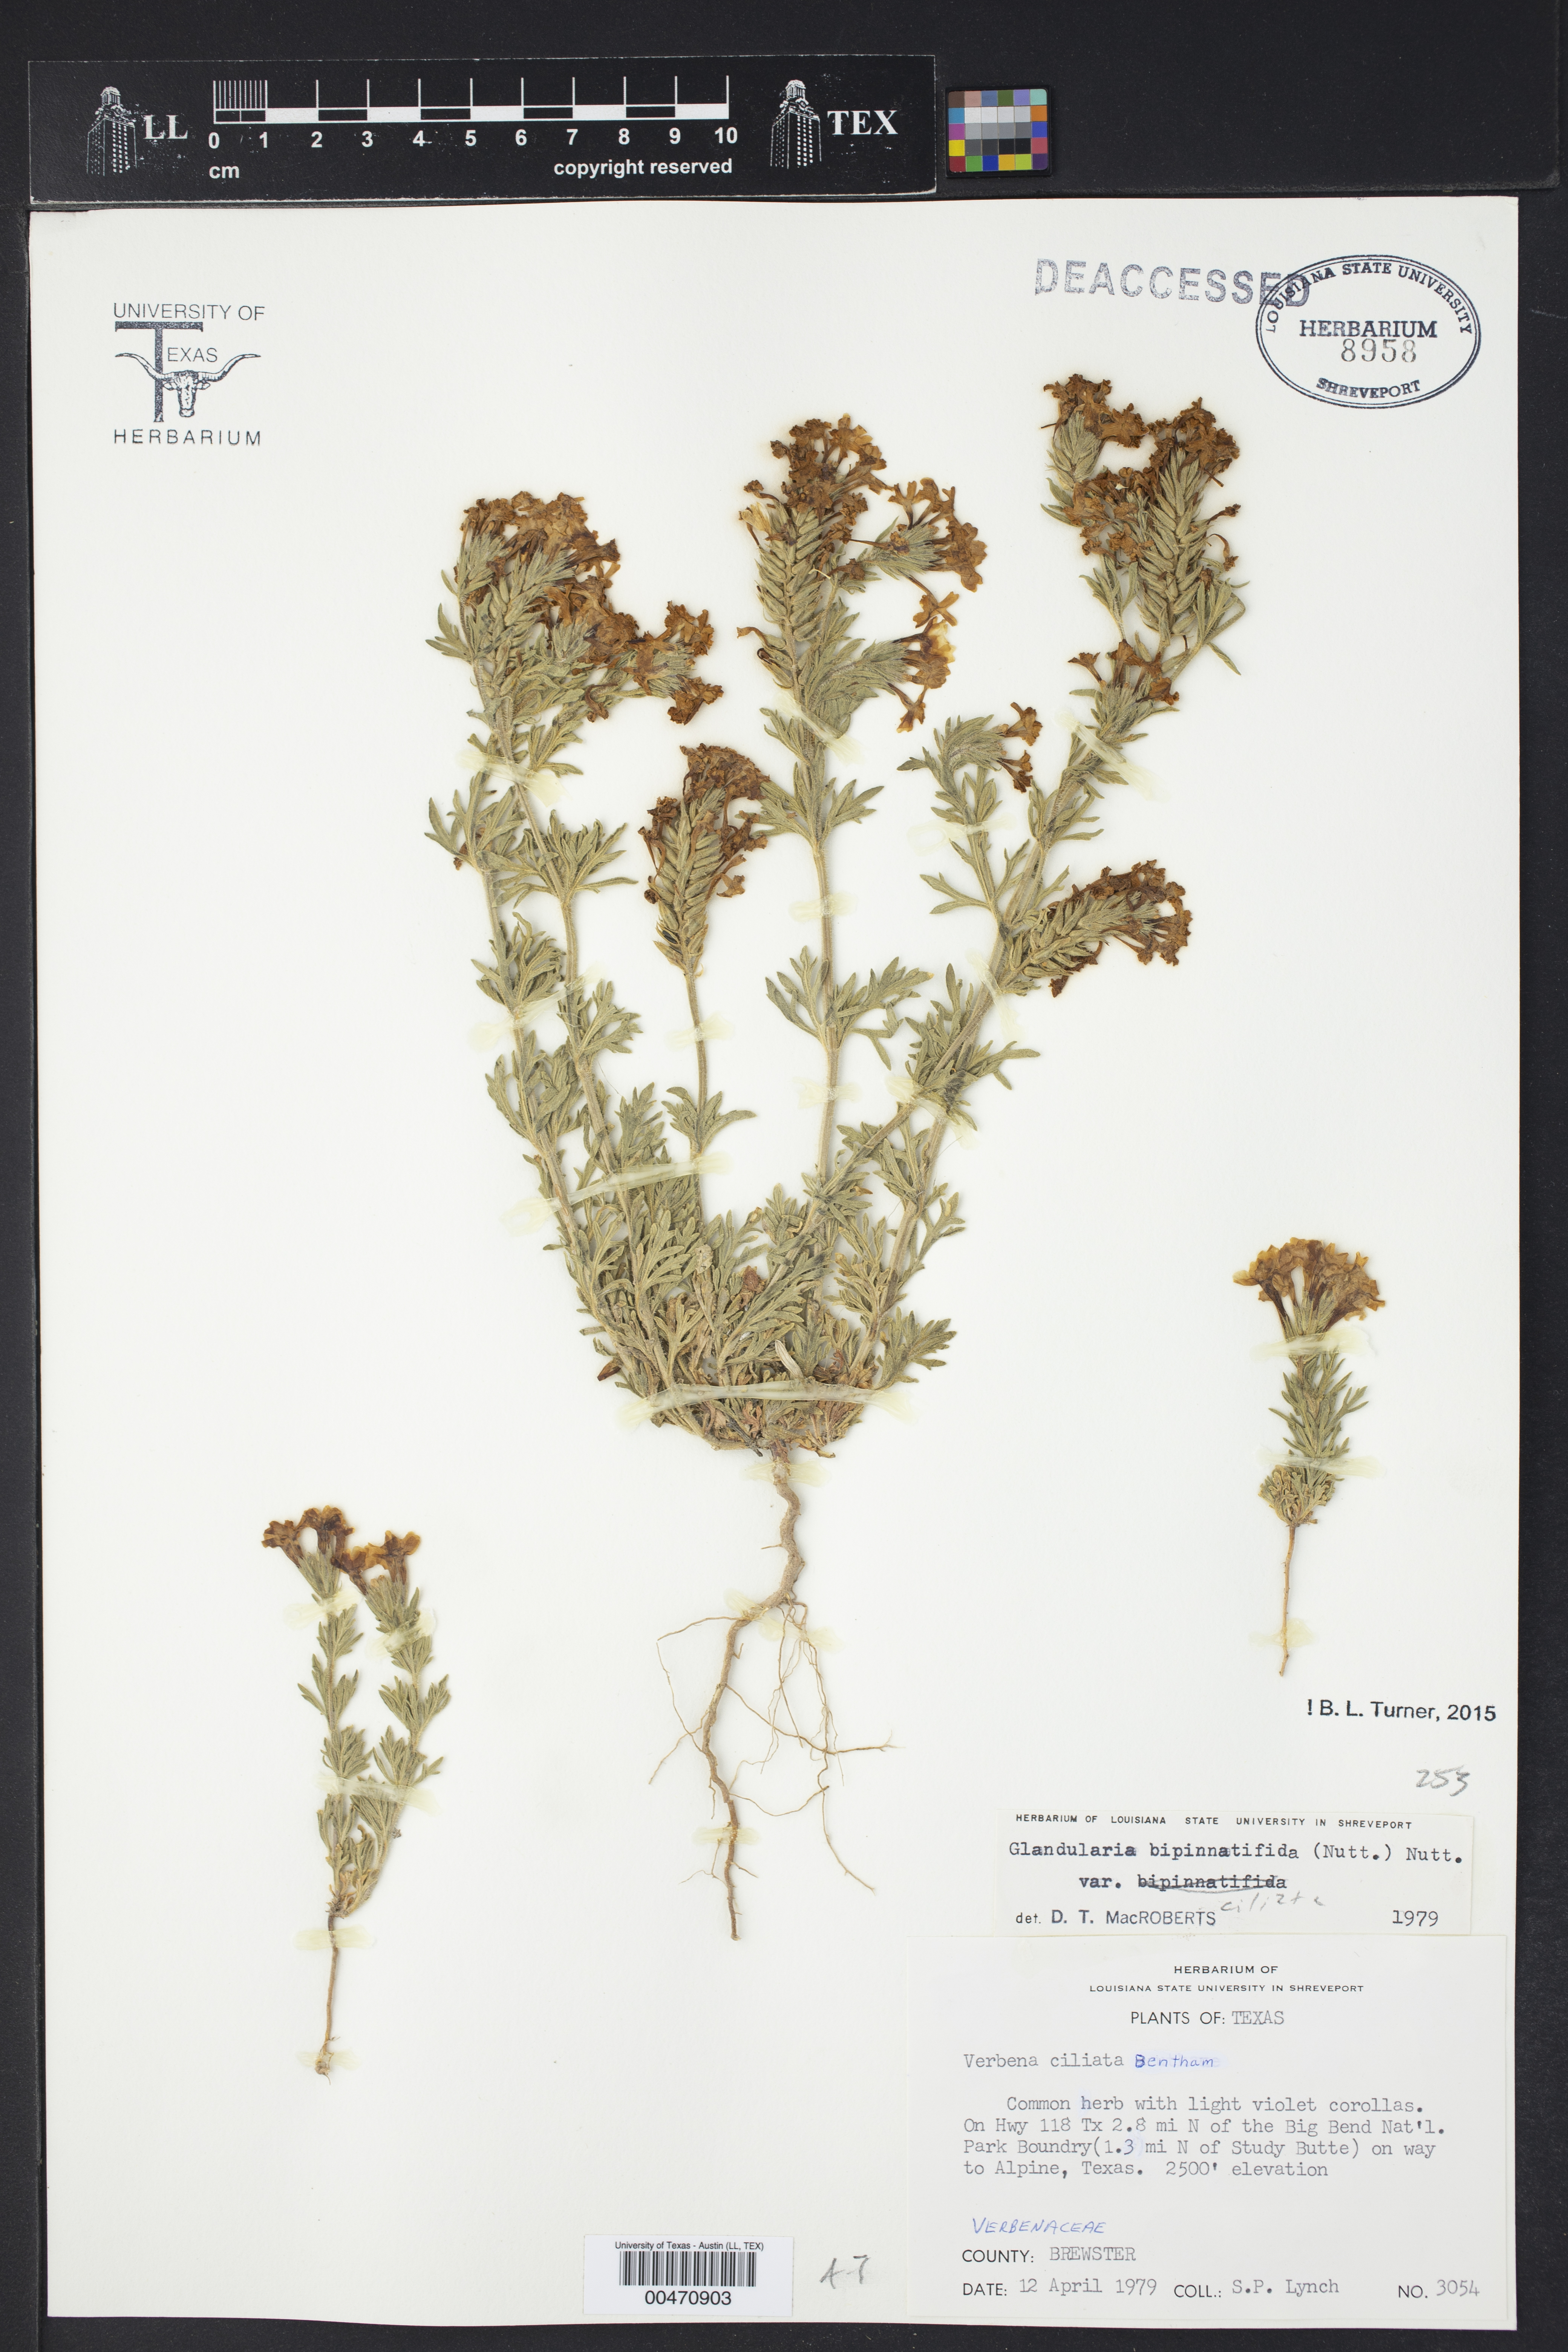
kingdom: Plantae
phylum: Tracheophyta
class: Magnoliopsida
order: Lamiales
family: Verbenaceae
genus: Verbena
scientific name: Verbena bipinnatifida
